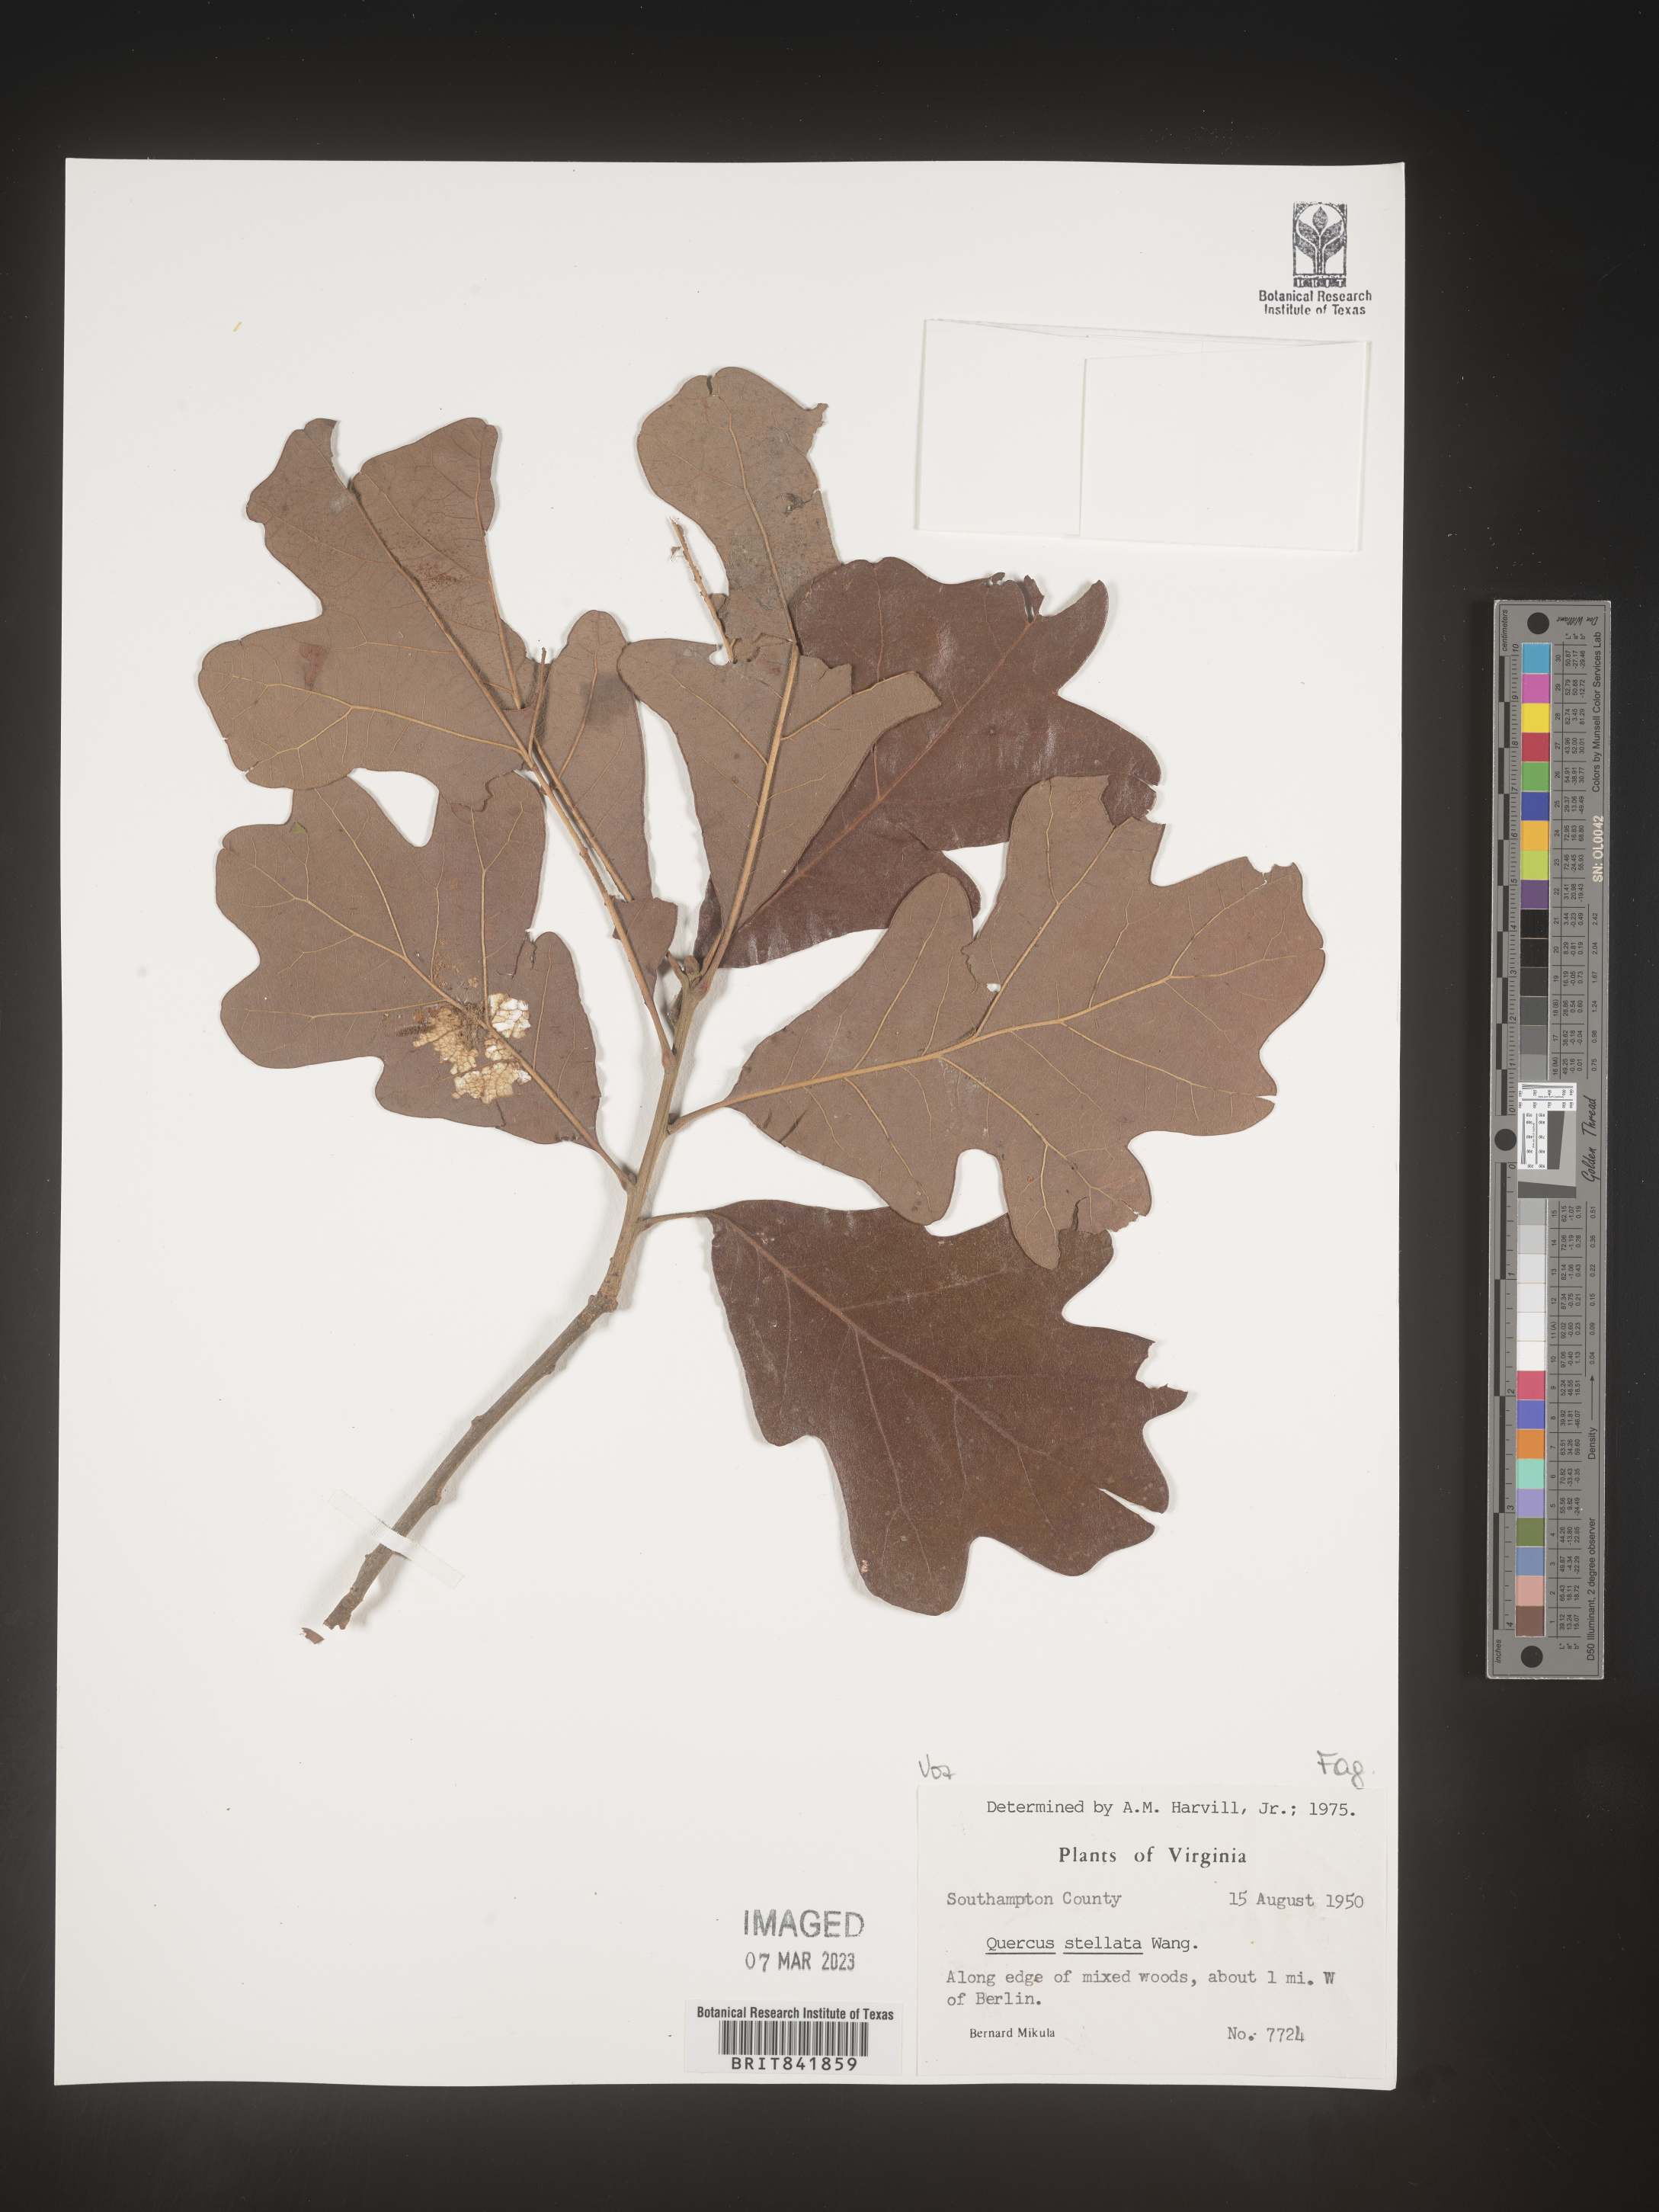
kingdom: Plantae
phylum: Tracheophyta
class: Magnoliopsida
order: Fagales
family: Fagaceae
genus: Quercus
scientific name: Quercus stellata
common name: Post oak
